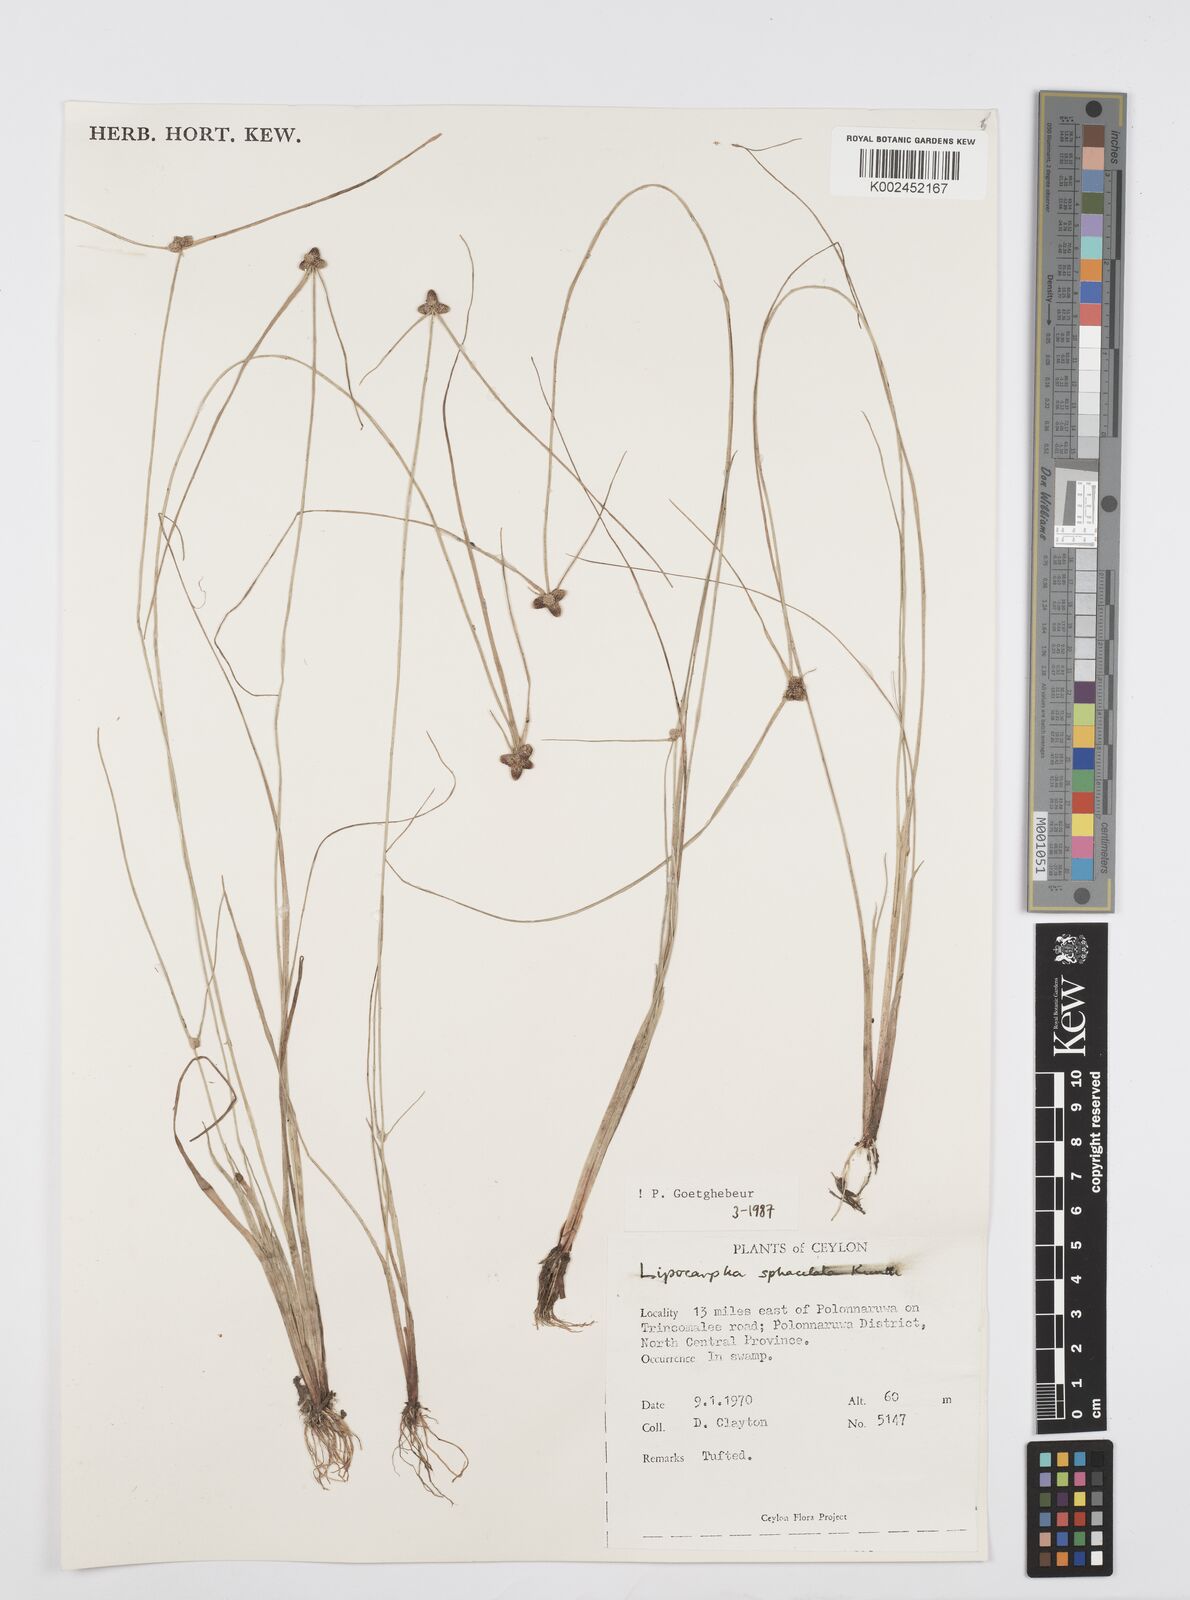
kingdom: Plantae
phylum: Tracheophyta
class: Liliopsida
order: Poales
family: Cyperaceae
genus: Cyperus
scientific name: Cyperus sphacelatus
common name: Roadside flatsedge
